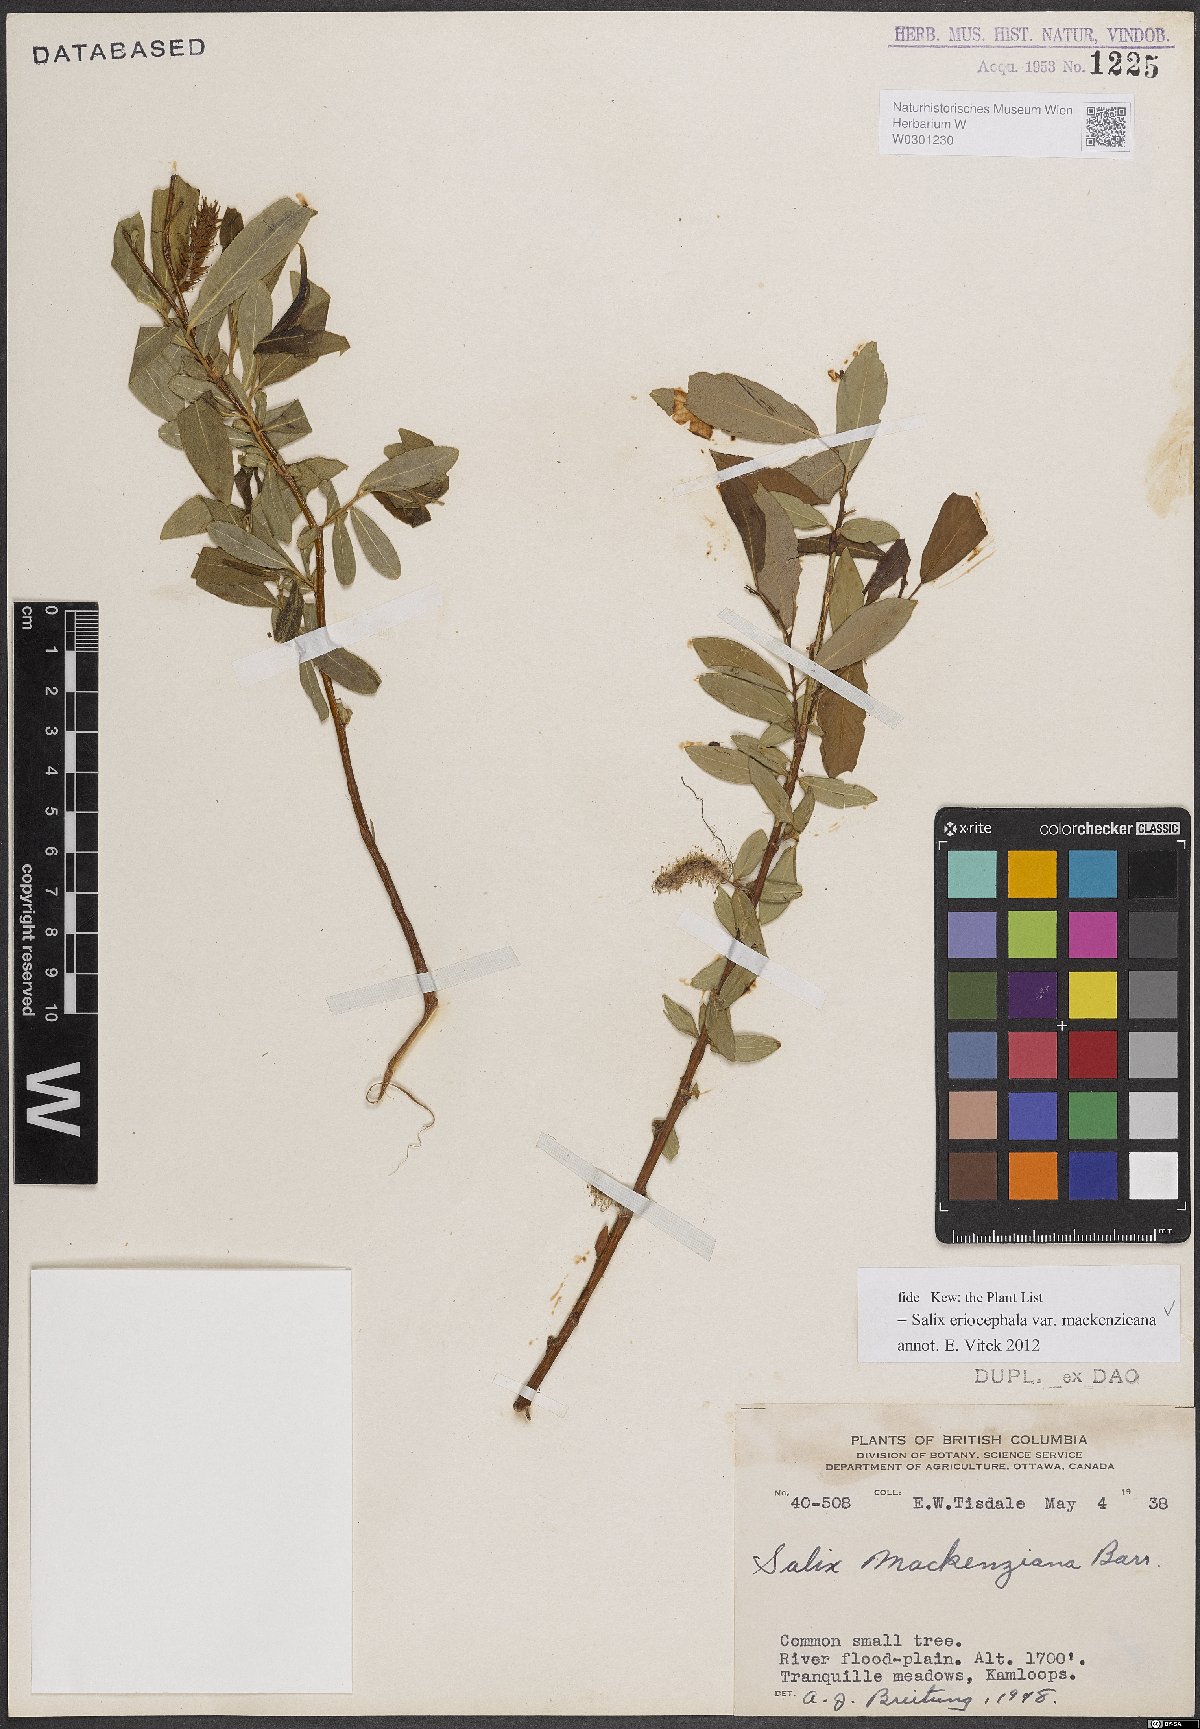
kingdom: Plantae
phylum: Tracheophyta
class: Magnoliopsida
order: Malpighiales
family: Salicaceae
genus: Salix
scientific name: Salix prolixa
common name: Mackenzie's willow
